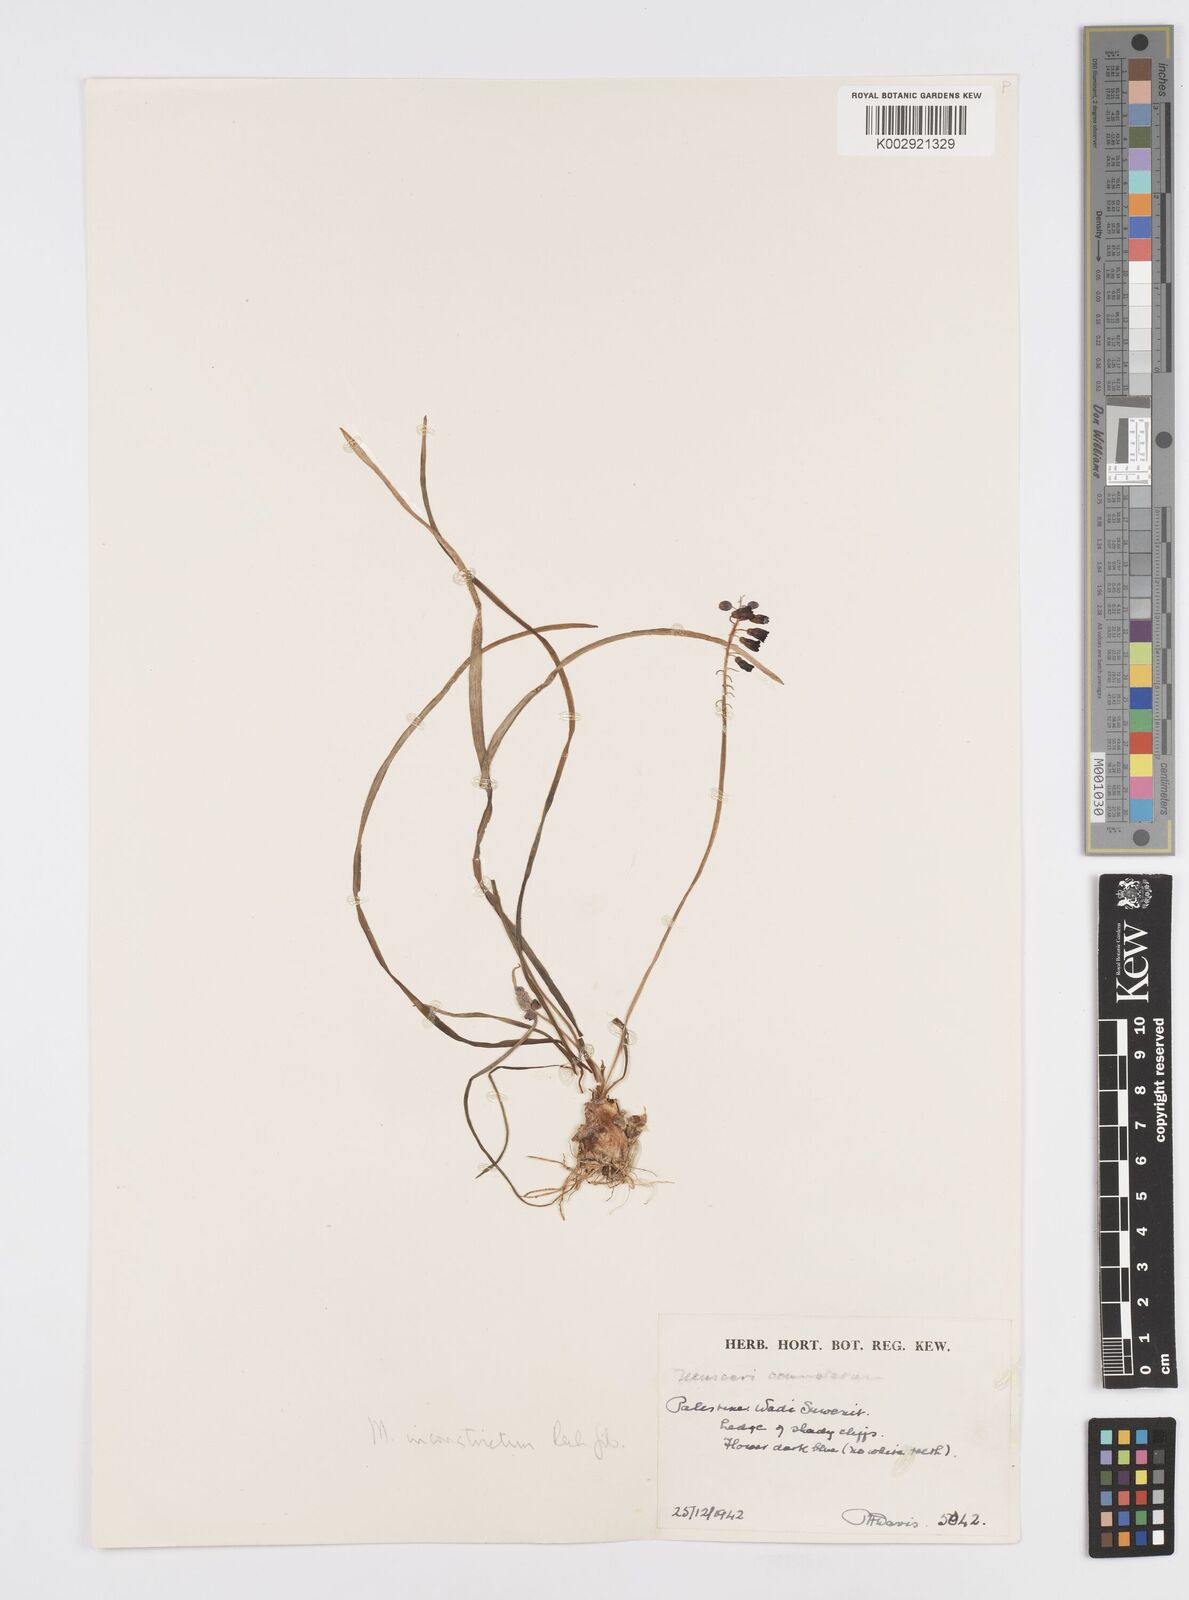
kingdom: Plantae
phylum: Tracheophyta
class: Liliopsida
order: Asparagales
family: Asparagaceae
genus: Muscari
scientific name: Muscari inconstrictum
